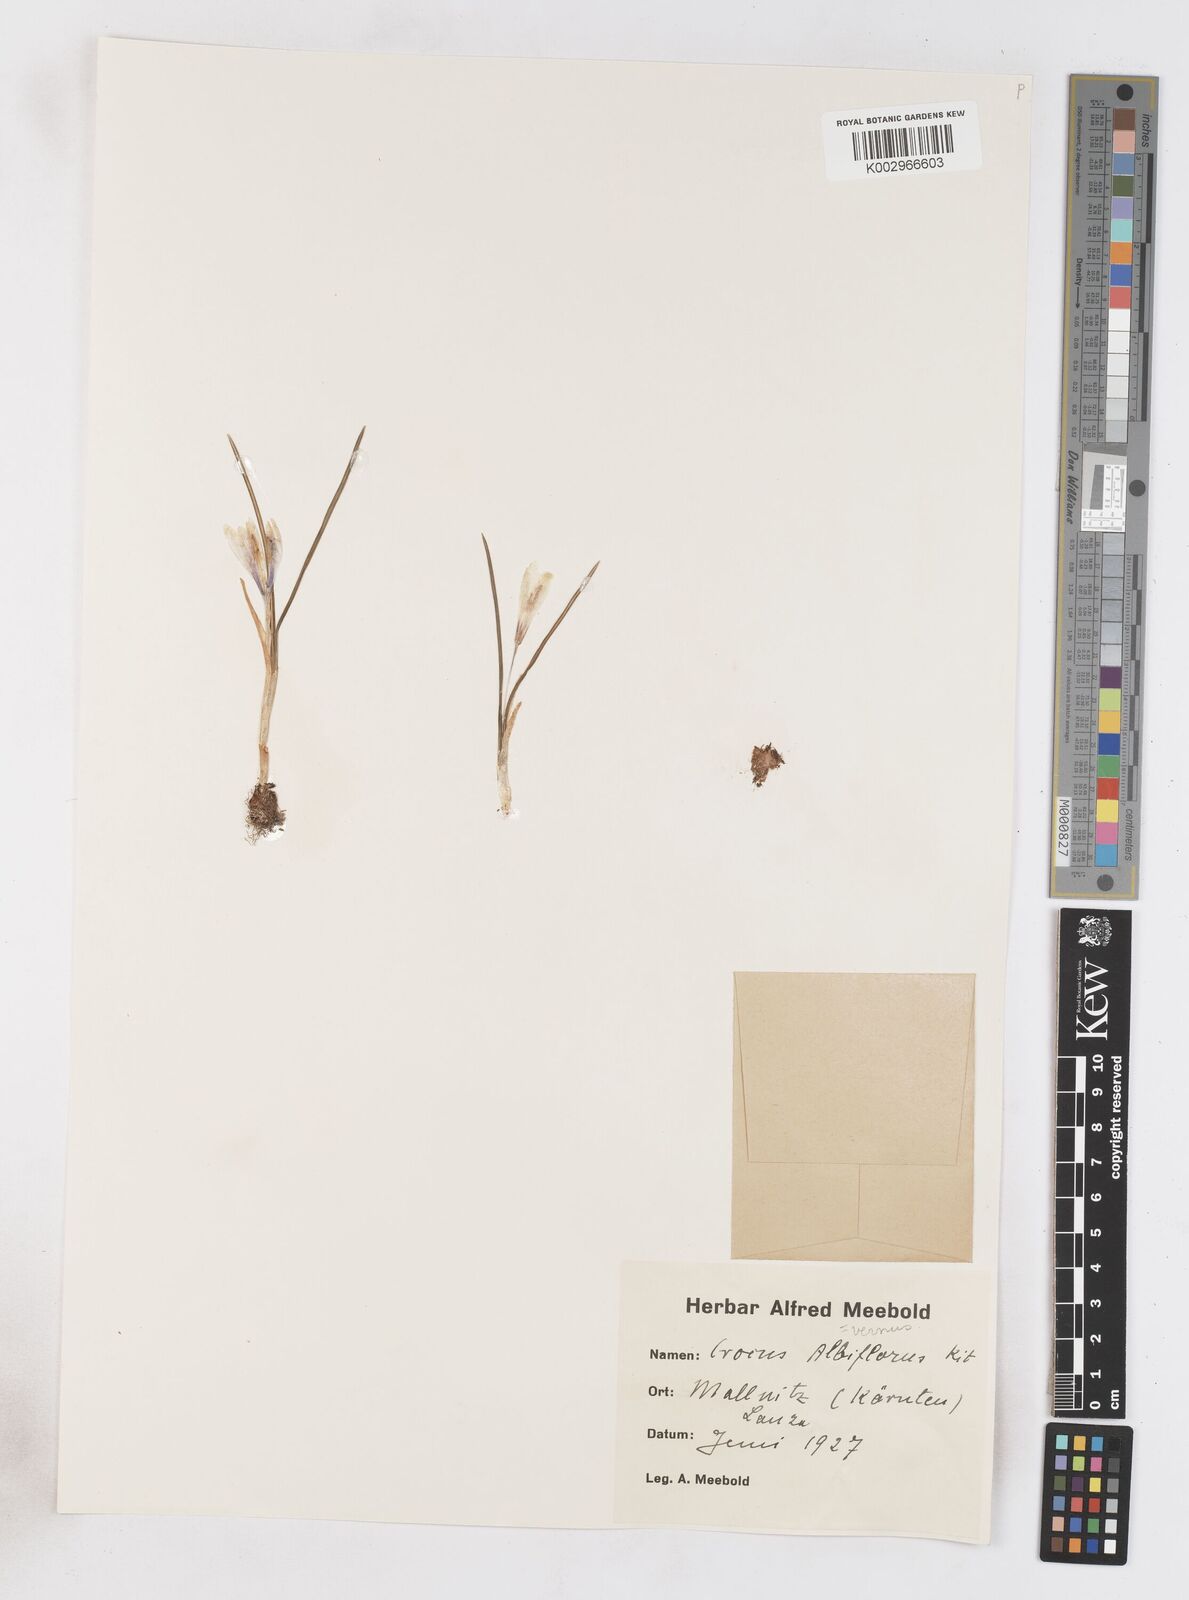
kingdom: Plantae
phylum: Tracheophyta
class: Liliopsida
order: Asparagales
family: Iridaceae
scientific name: Iridaceae
